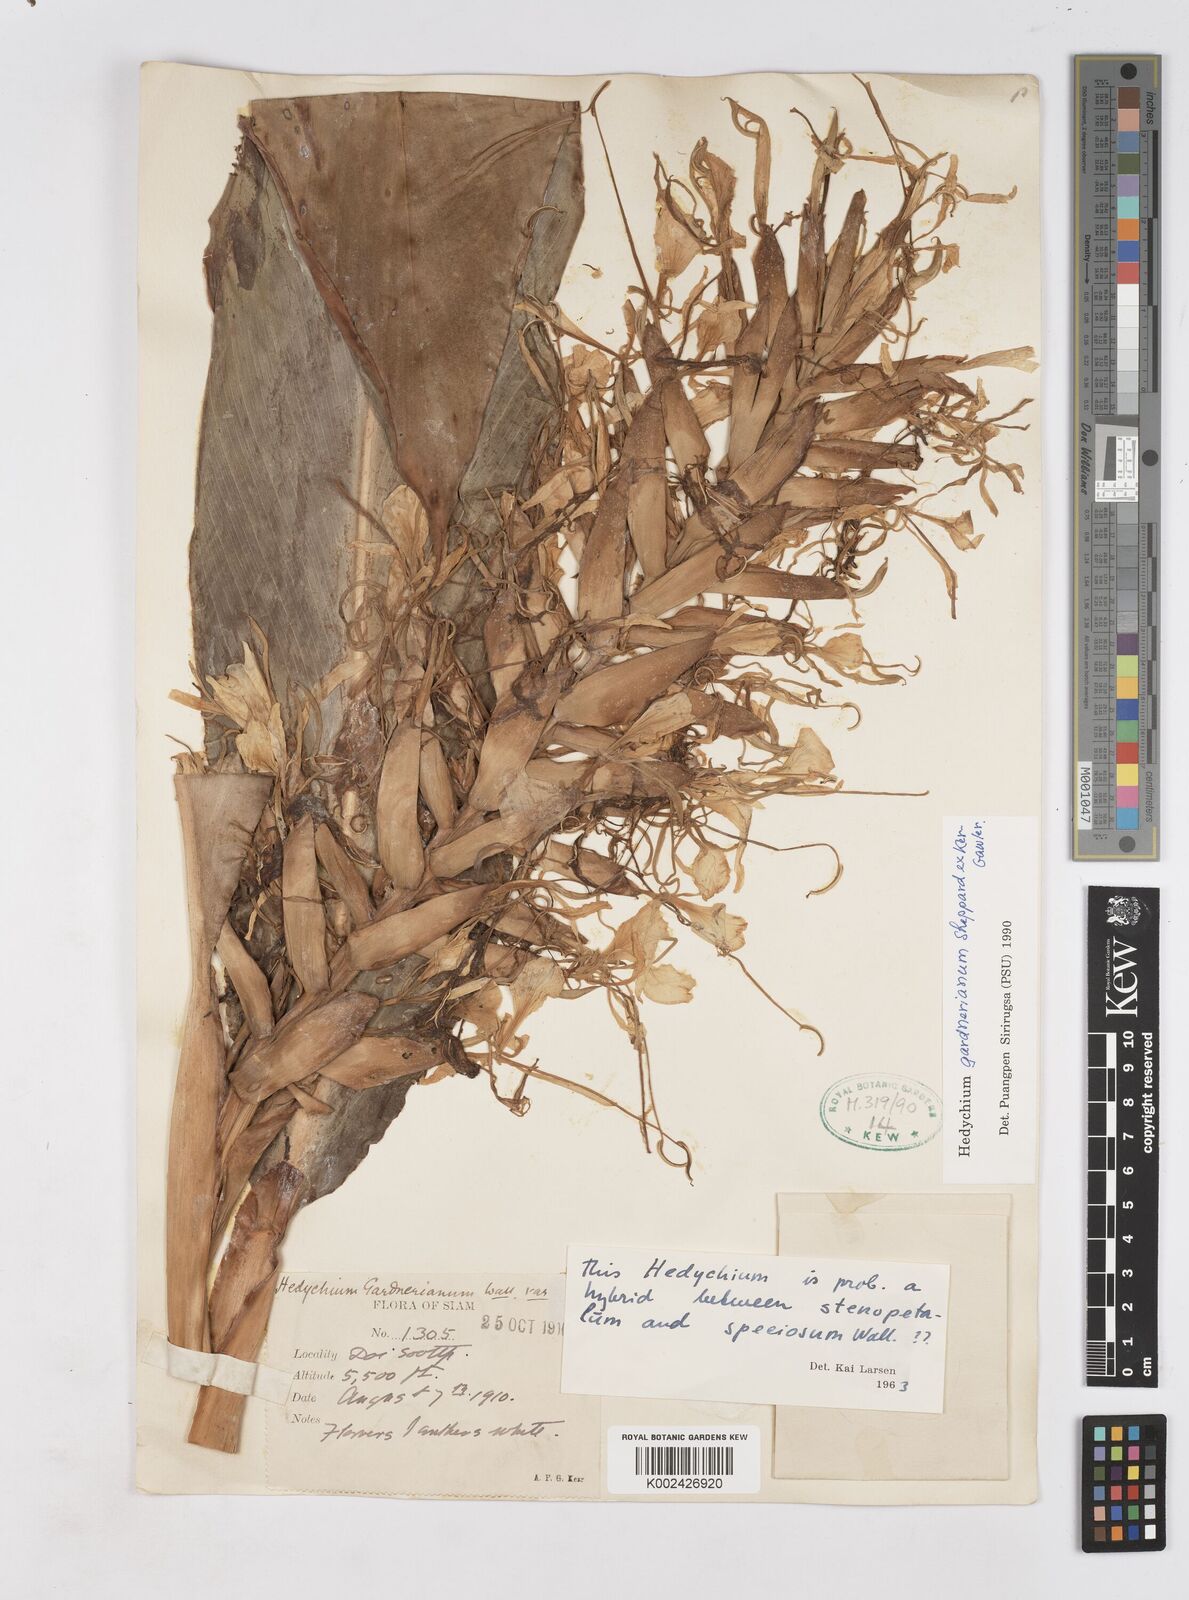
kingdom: Plantae
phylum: Tracheophyta
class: Liliopsida
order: Zingiberales
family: Zingiberaceae
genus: Hedychium
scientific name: Hedychium gardnerianum
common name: Himalayan ginger
